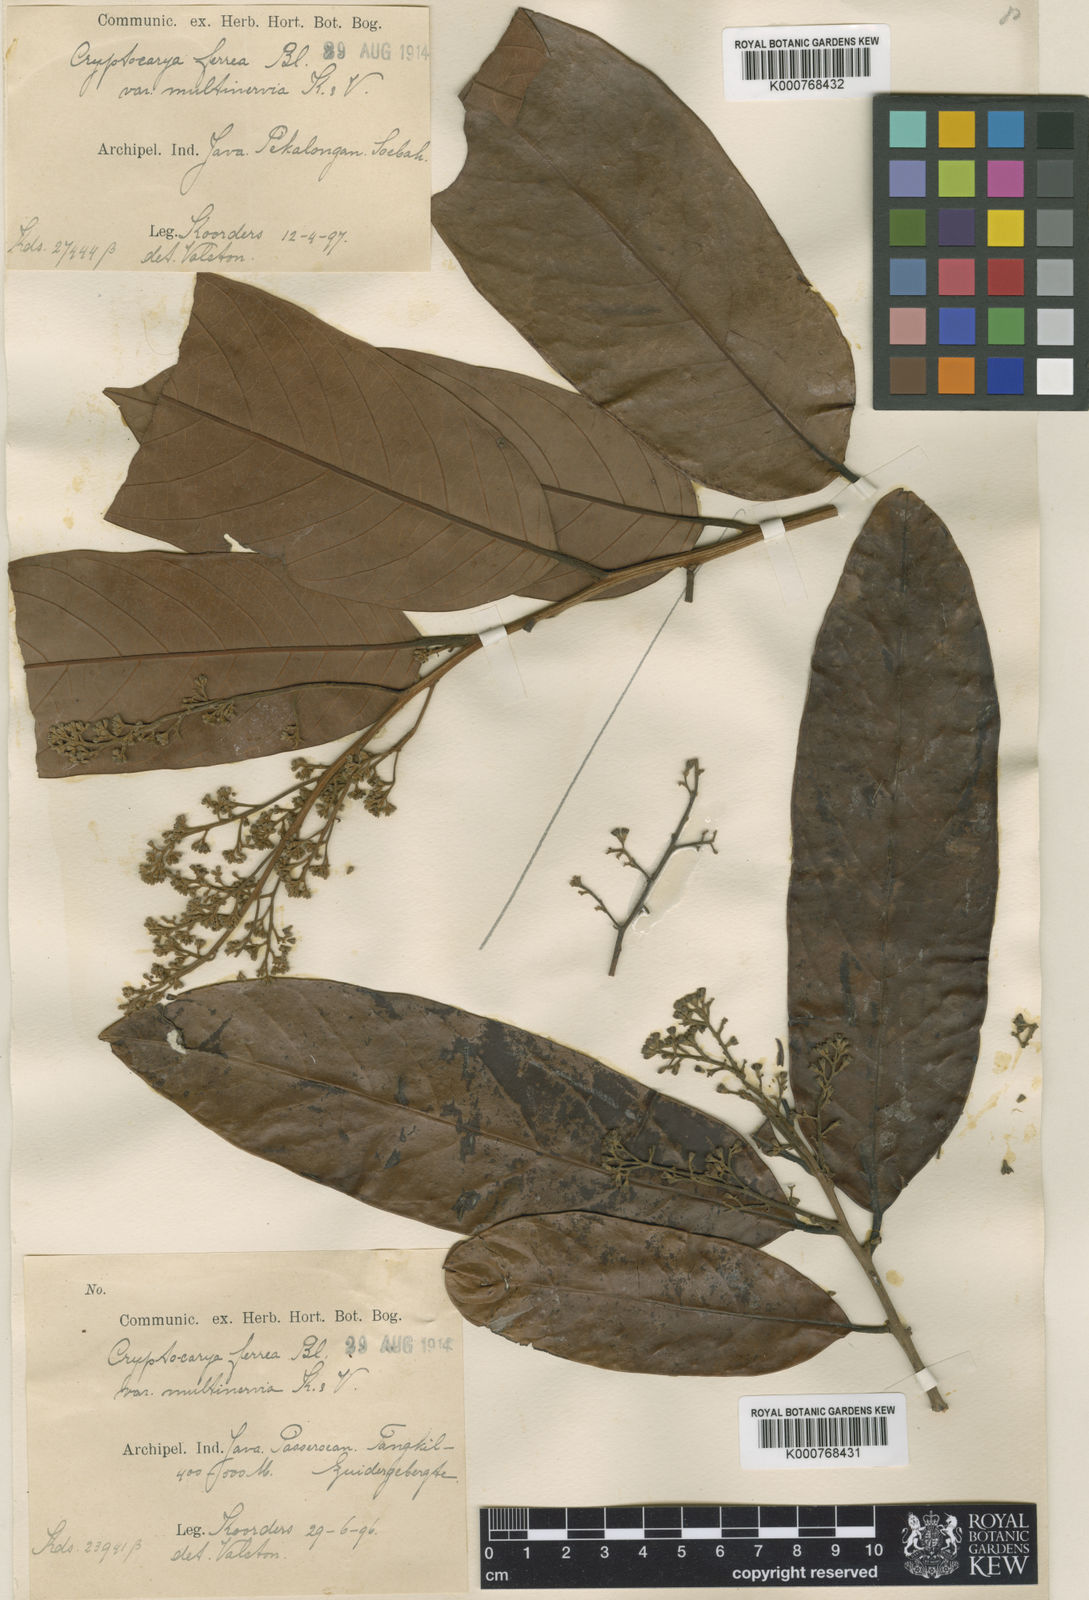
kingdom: Plantae
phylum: Tracheophyta
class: Magnoliopsida
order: Laurales
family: Lauraceae
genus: Cryptocarya
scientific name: Cryptocarya ferrea
